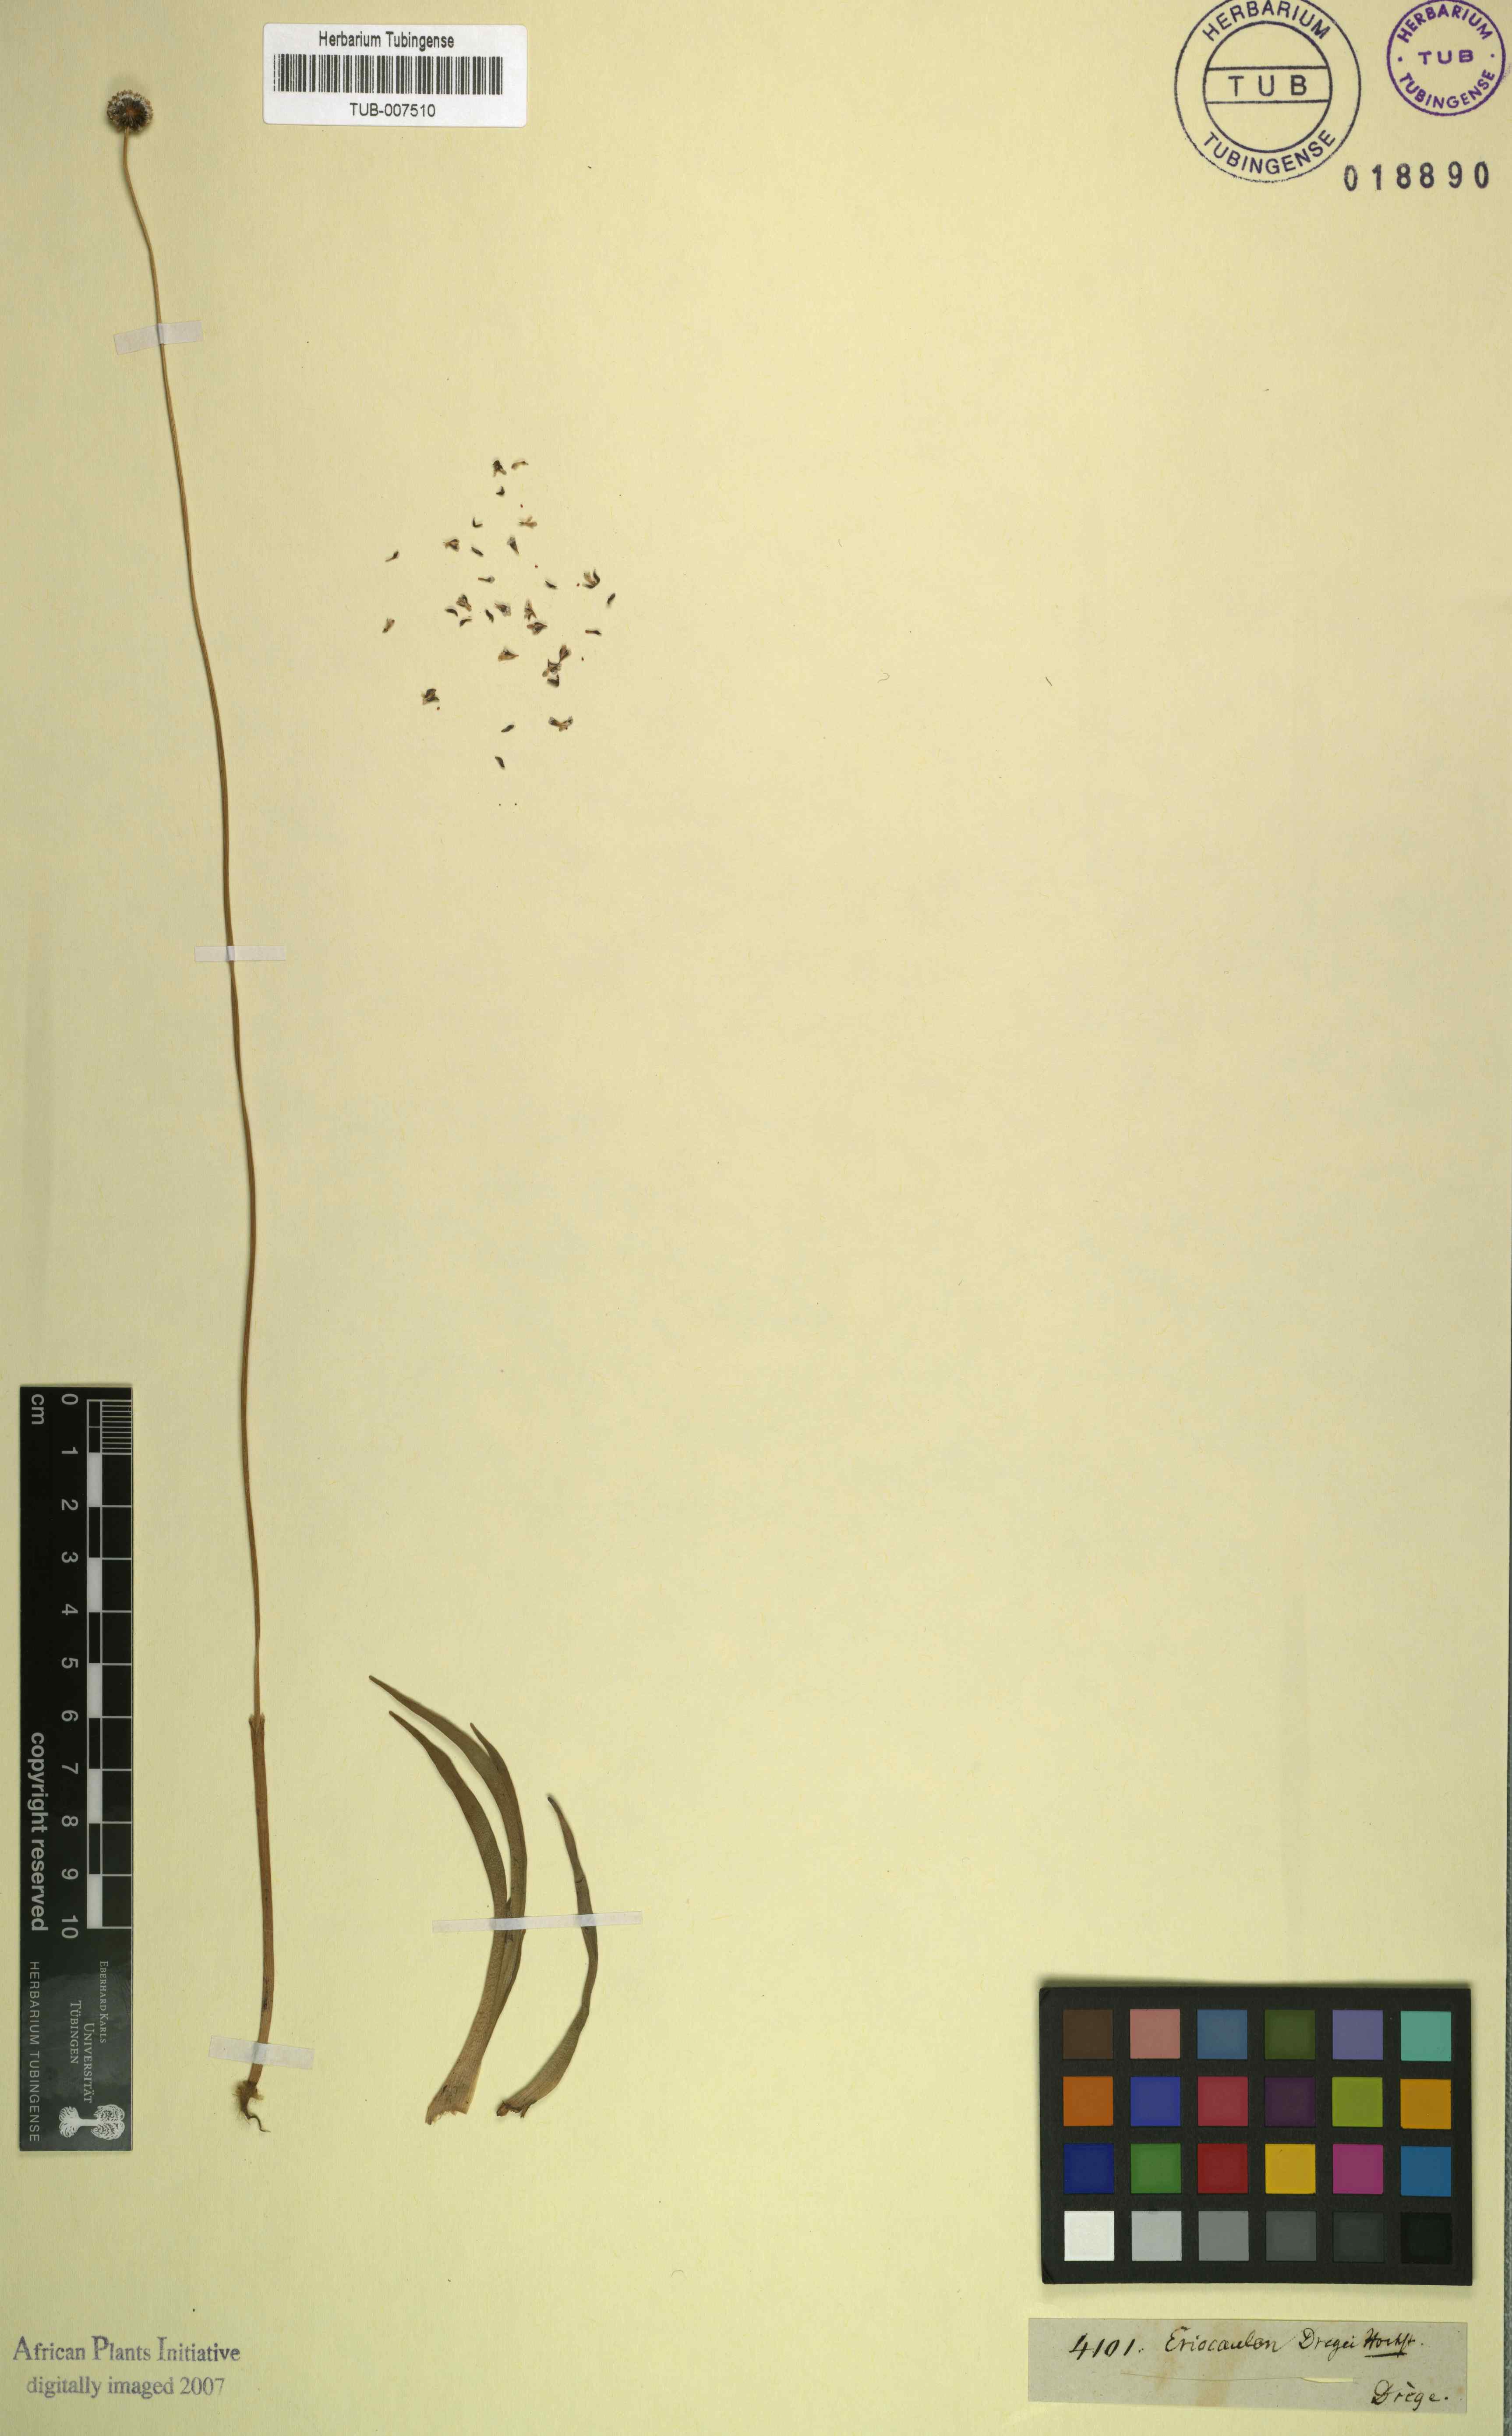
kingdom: Plantae
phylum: Tracheophyta
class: Liliopsida
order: Poales
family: Eriocaulaceae
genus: Eriocaulon
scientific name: Eriocaulon dregei
